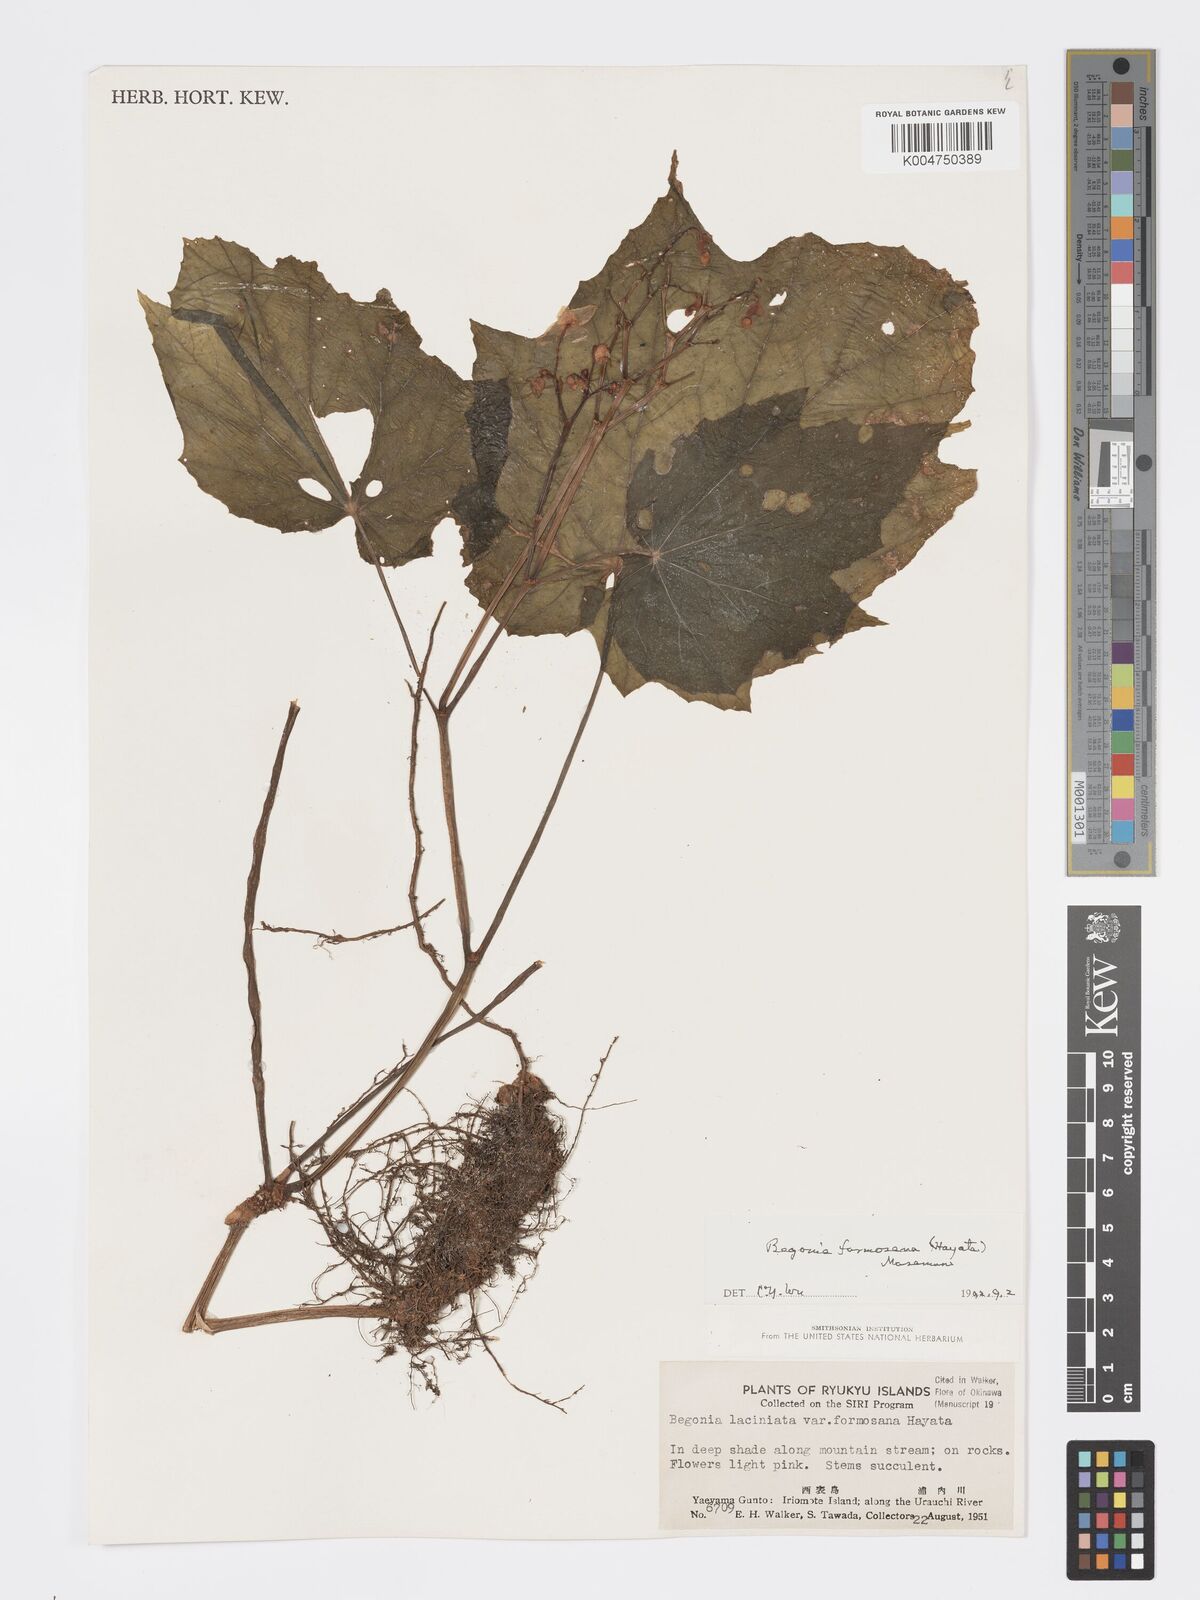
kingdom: Plantae
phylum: Tracheophyta
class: Magnoliopsida
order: Cucurbitales
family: Begoniaceae
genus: Begonia
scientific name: Begonia formosana
